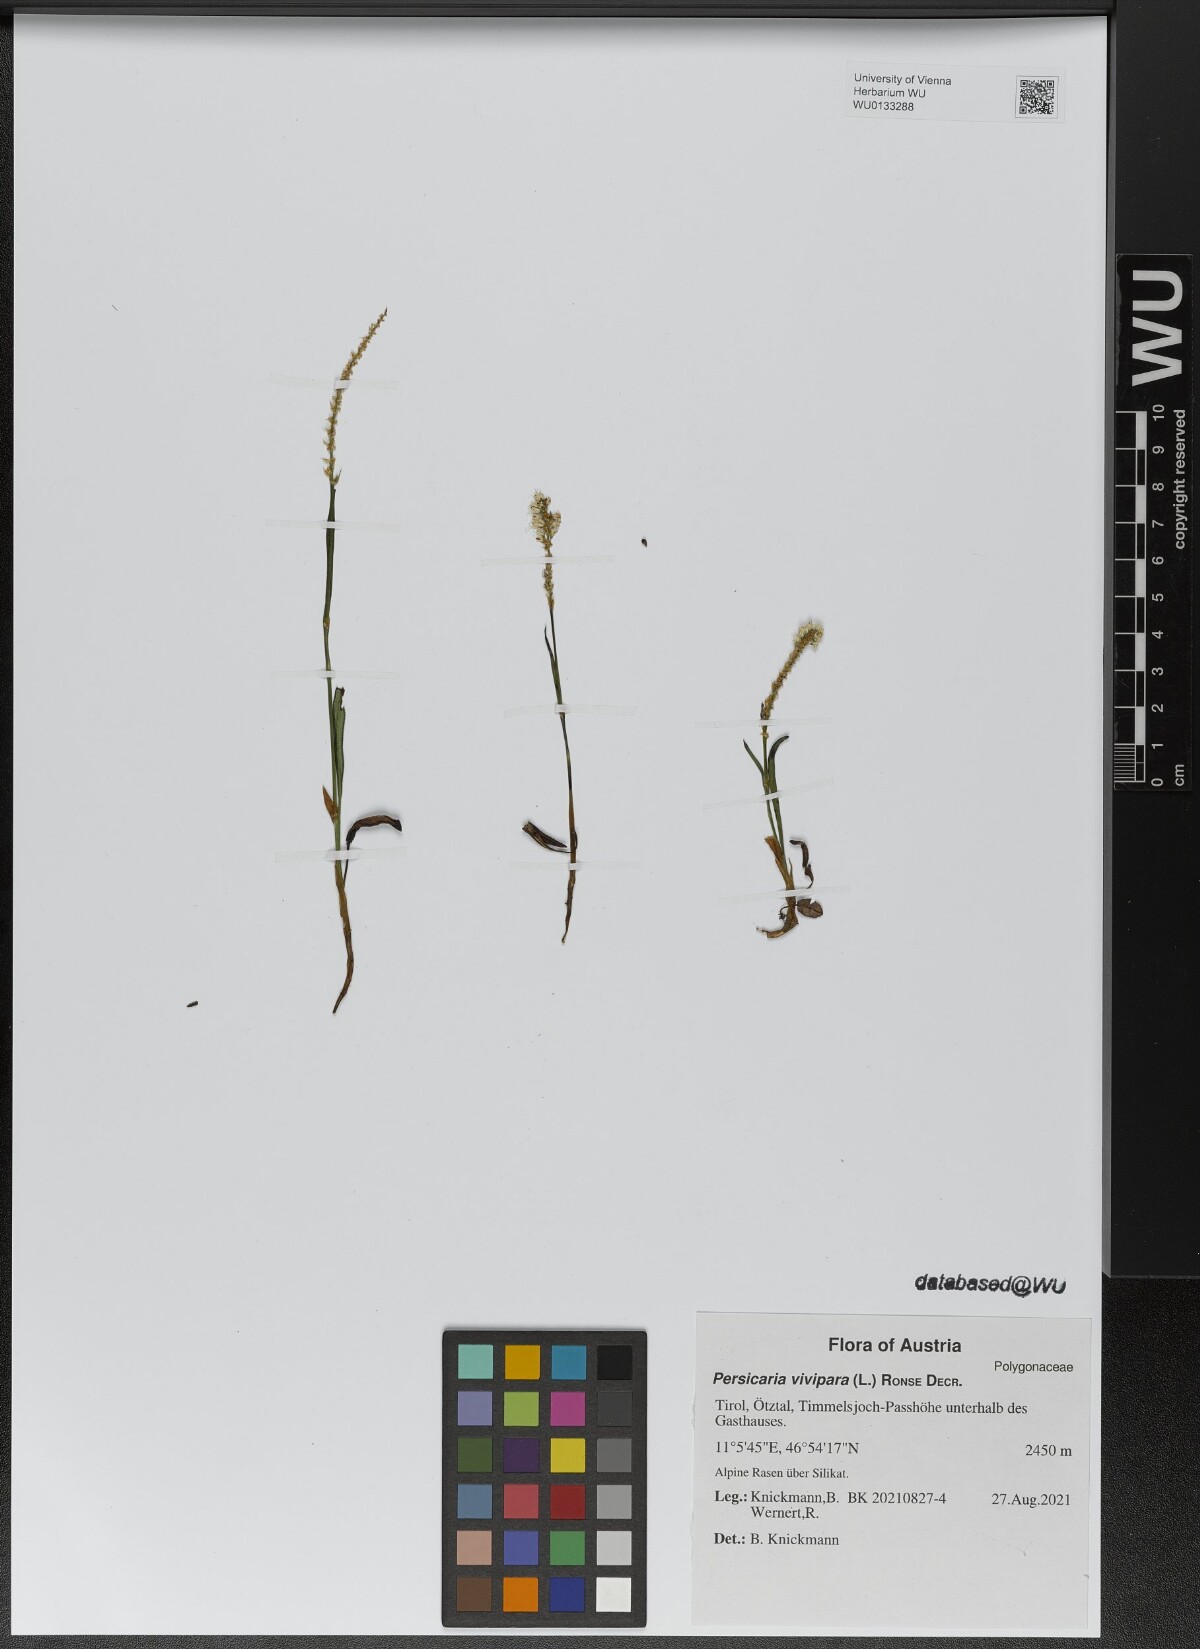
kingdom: Plantae
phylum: Tracheophyta
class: Magnoliopsida
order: Caryophyllales
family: Polygonaceae
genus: Bistorta
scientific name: Bistorta vivipara
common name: Alpine bistort
